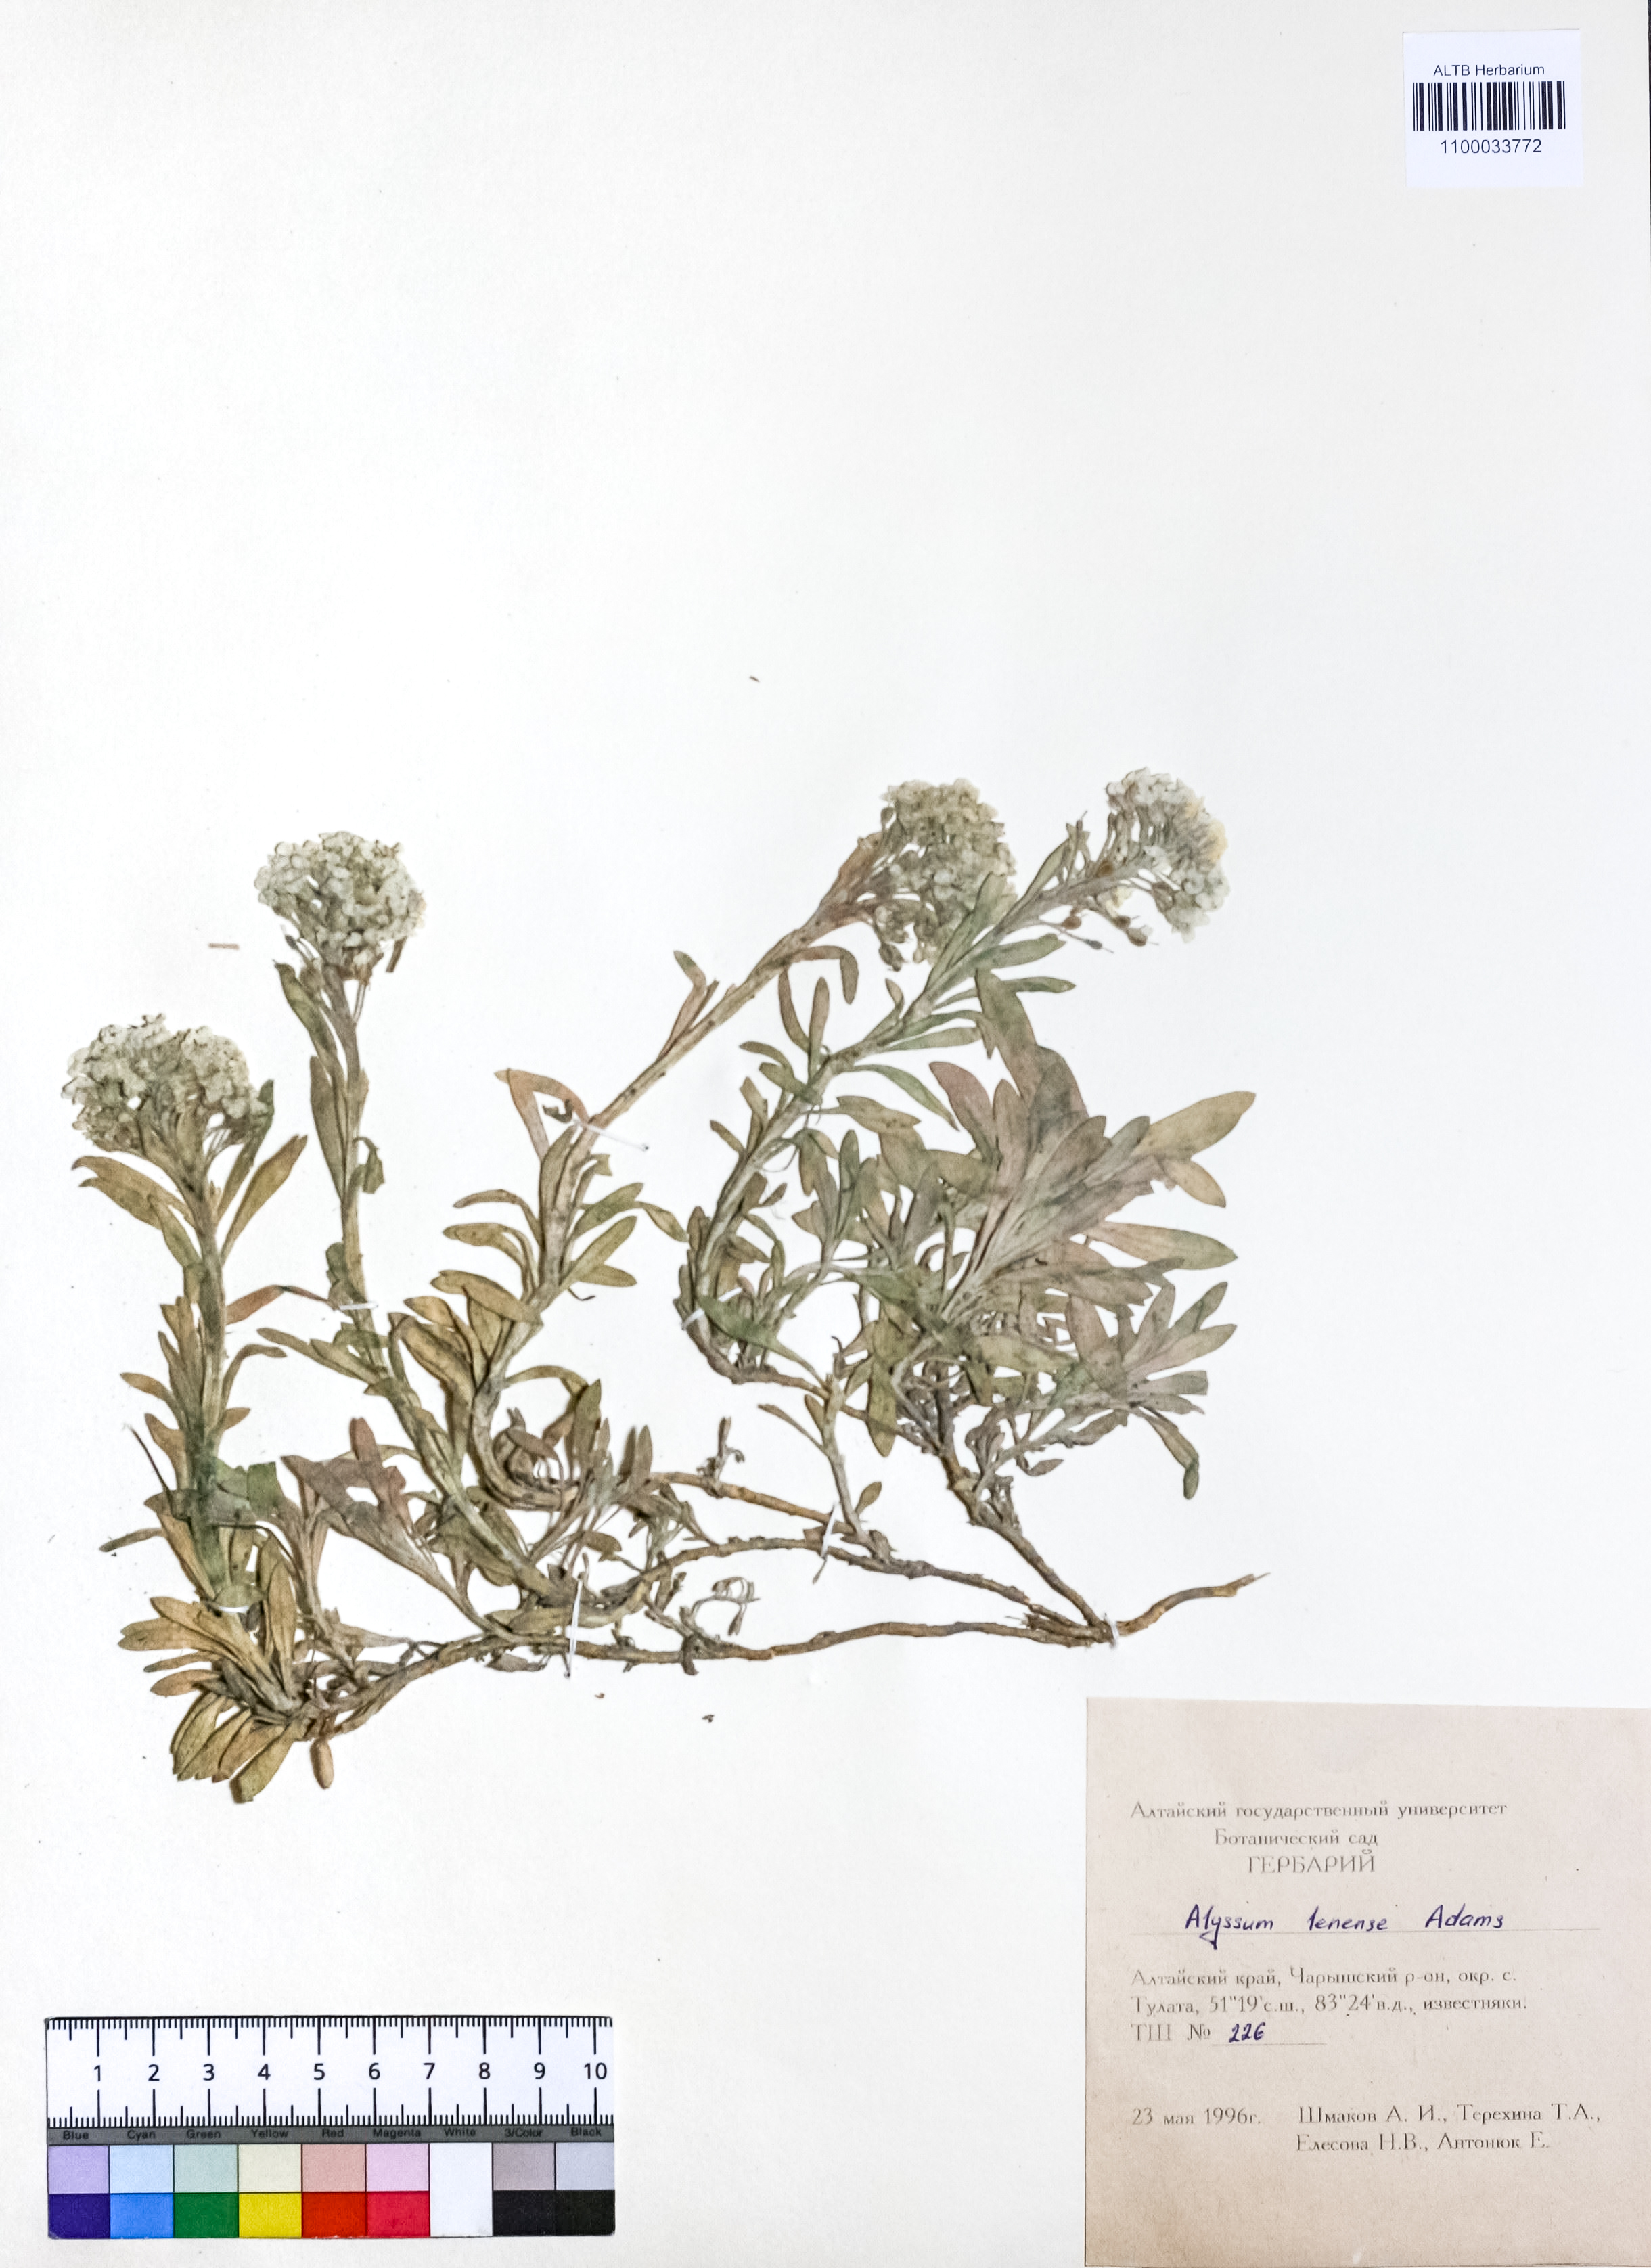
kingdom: Plantae
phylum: Tracheophyta
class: Magnoliopsida
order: Brassicales
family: Brassicaceae
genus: Alyssum
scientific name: Alyssum lenense
